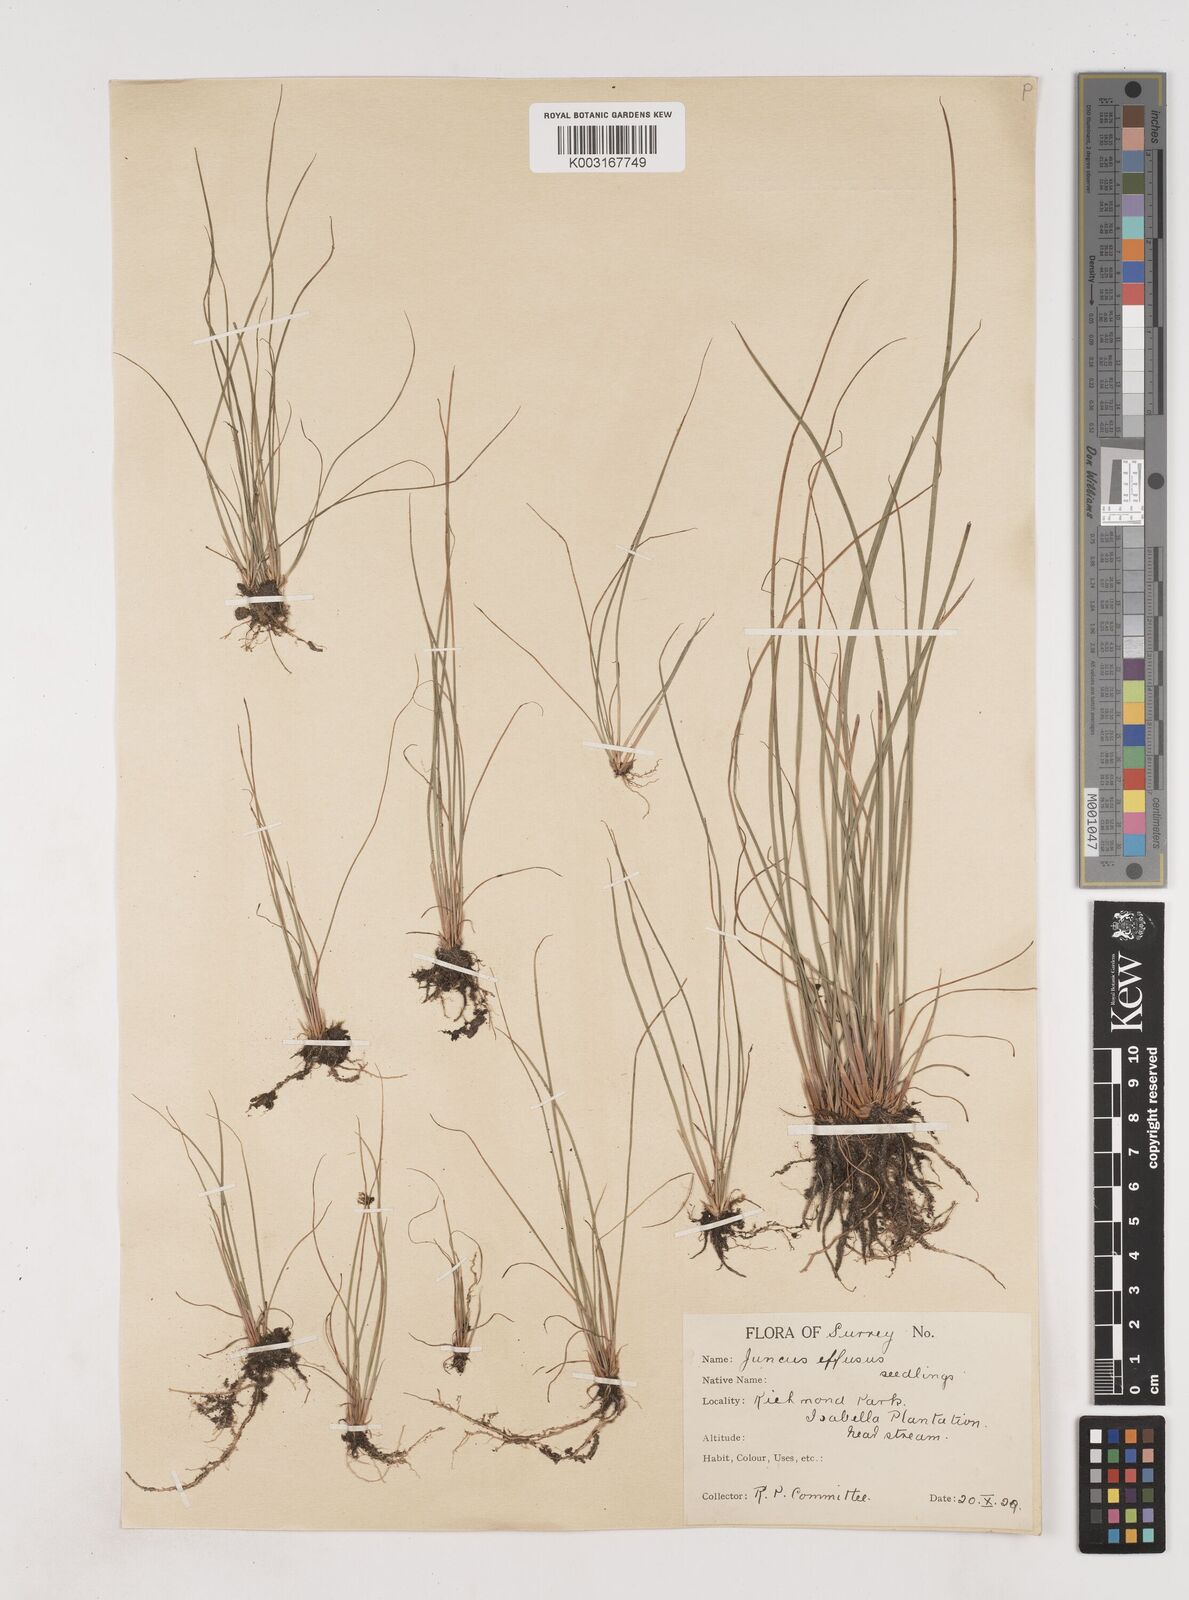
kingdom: Plantae
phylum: Tracheophyta
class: Liliopsida
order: Poales
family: Juncaceae
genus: Juncus
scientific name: Juncus effusus
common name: Soft rush
